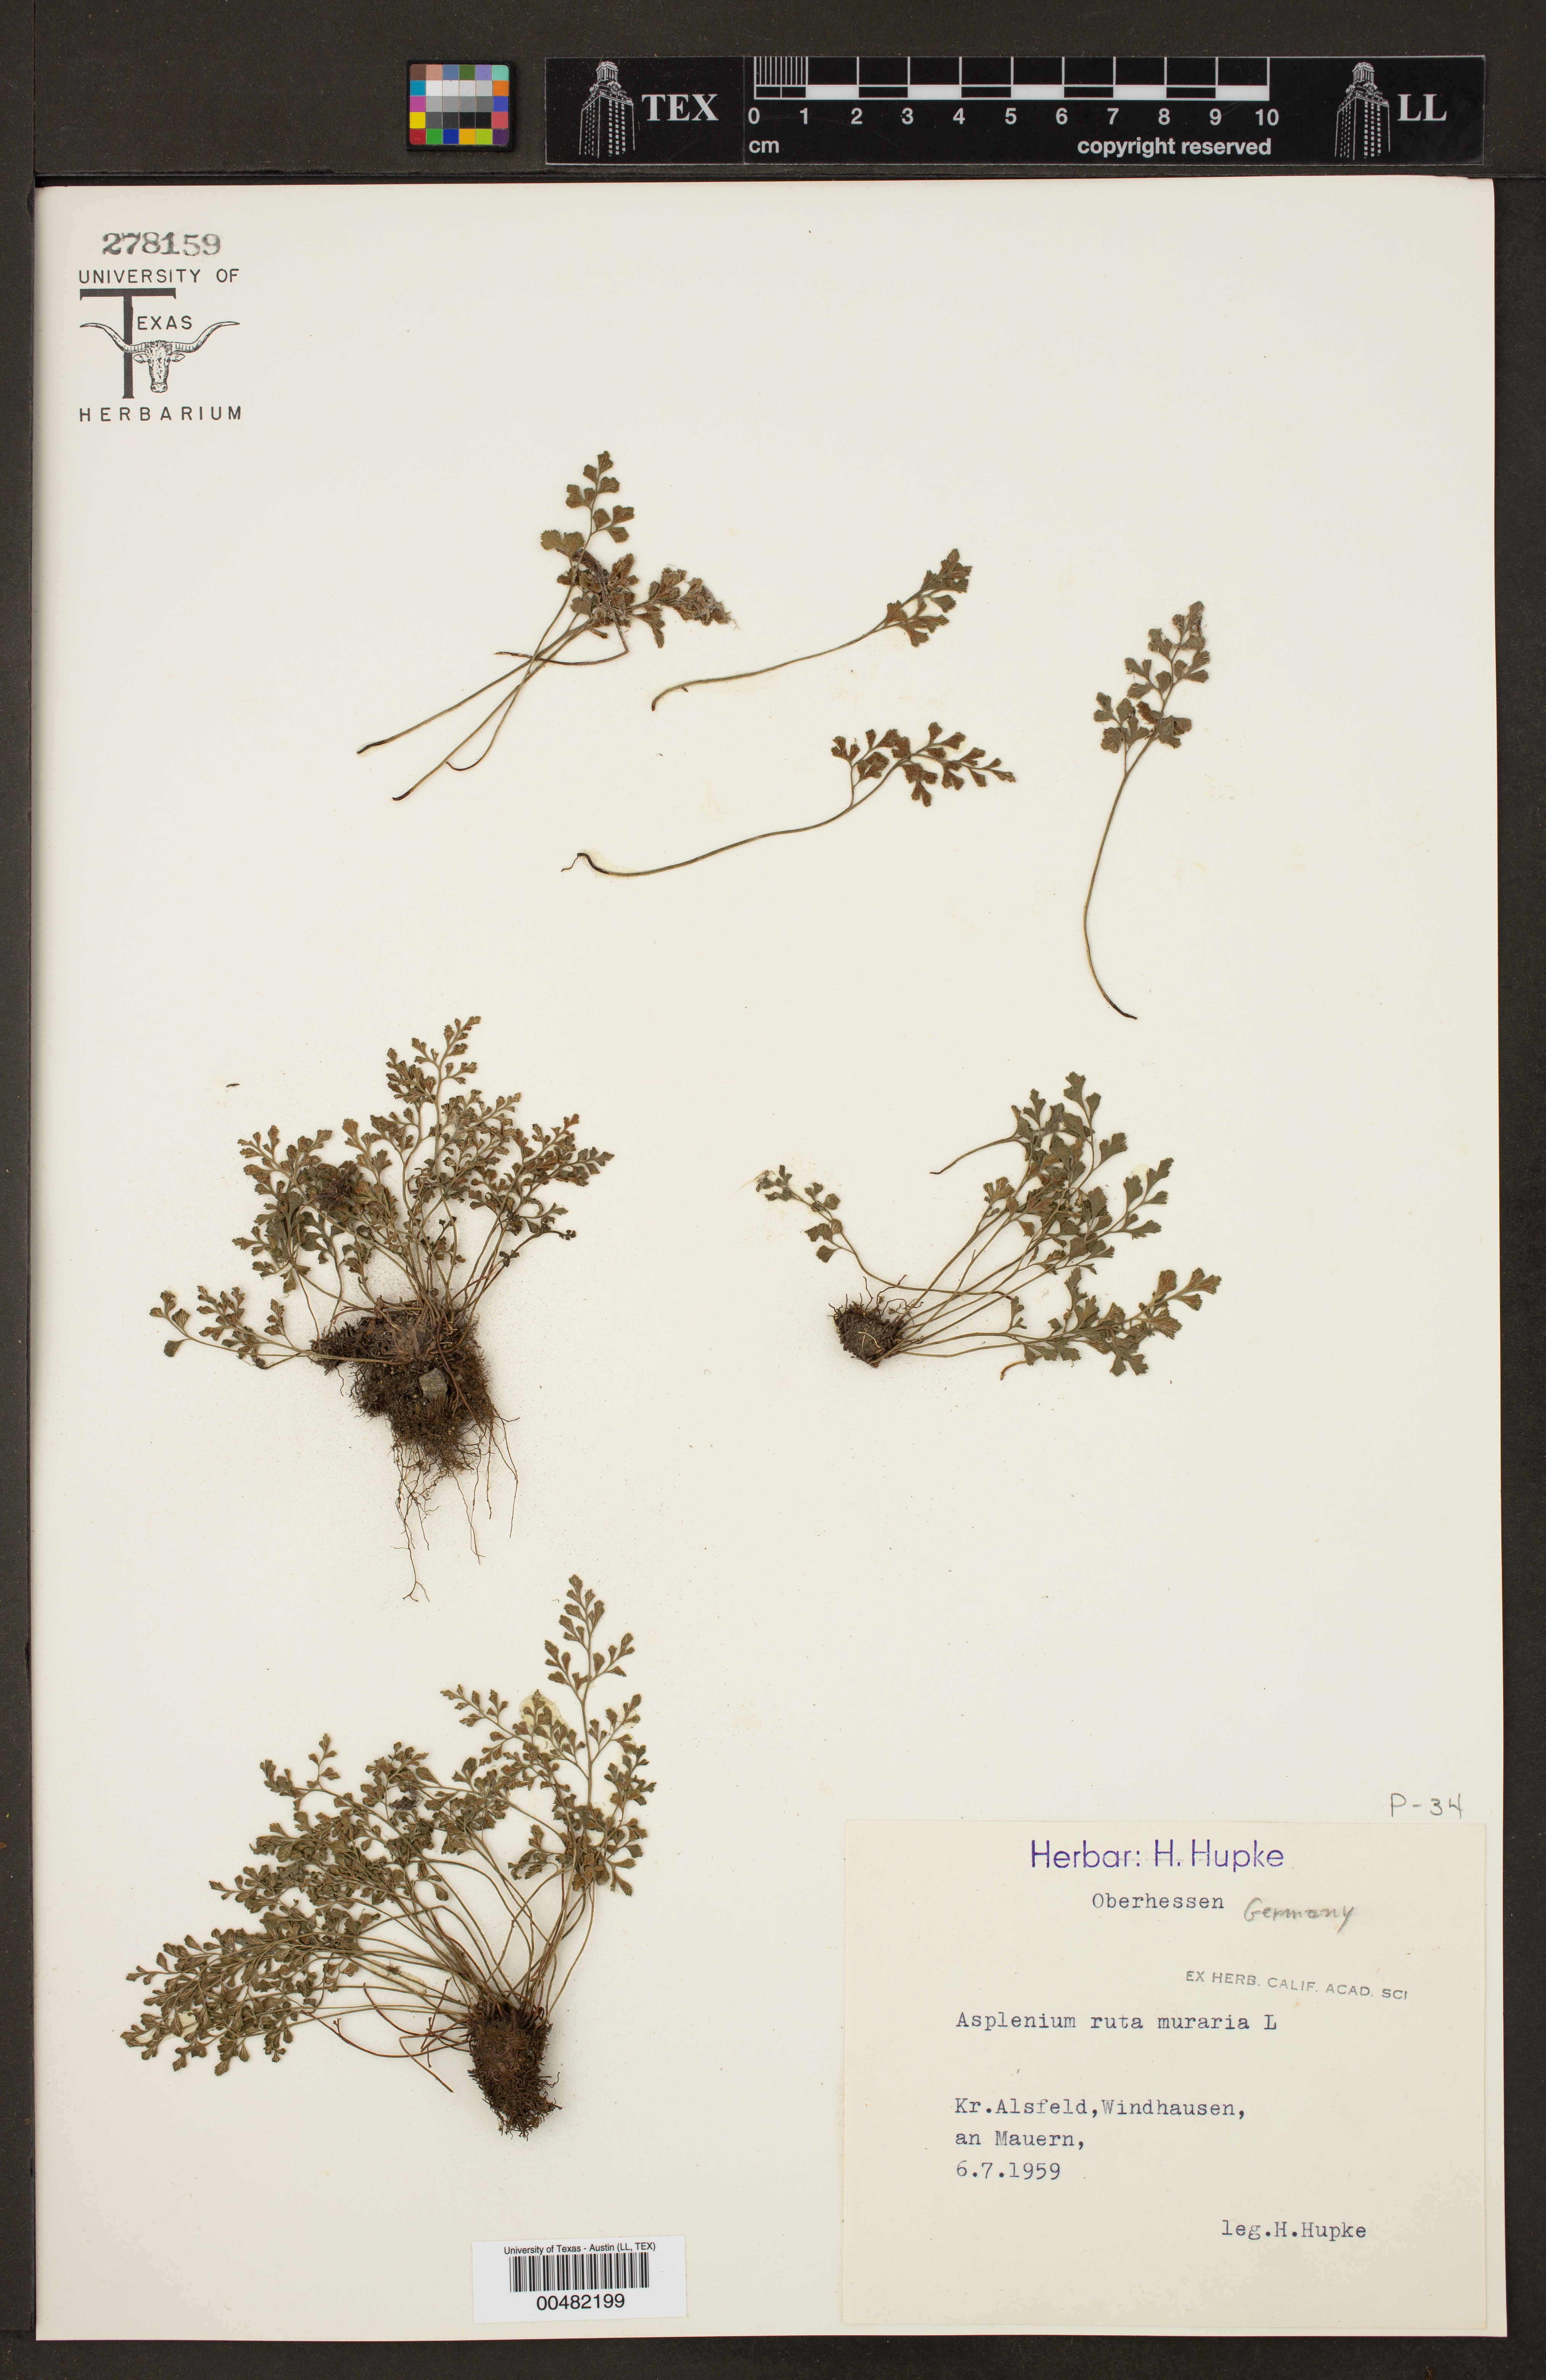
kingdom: Plantae
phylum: Tracheophyta
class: Polypodiopsida
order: Polypodiales
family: Aspleniaceae
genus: Asplenium
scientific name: Asplenium ruta-muraria
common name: Wall-rue
